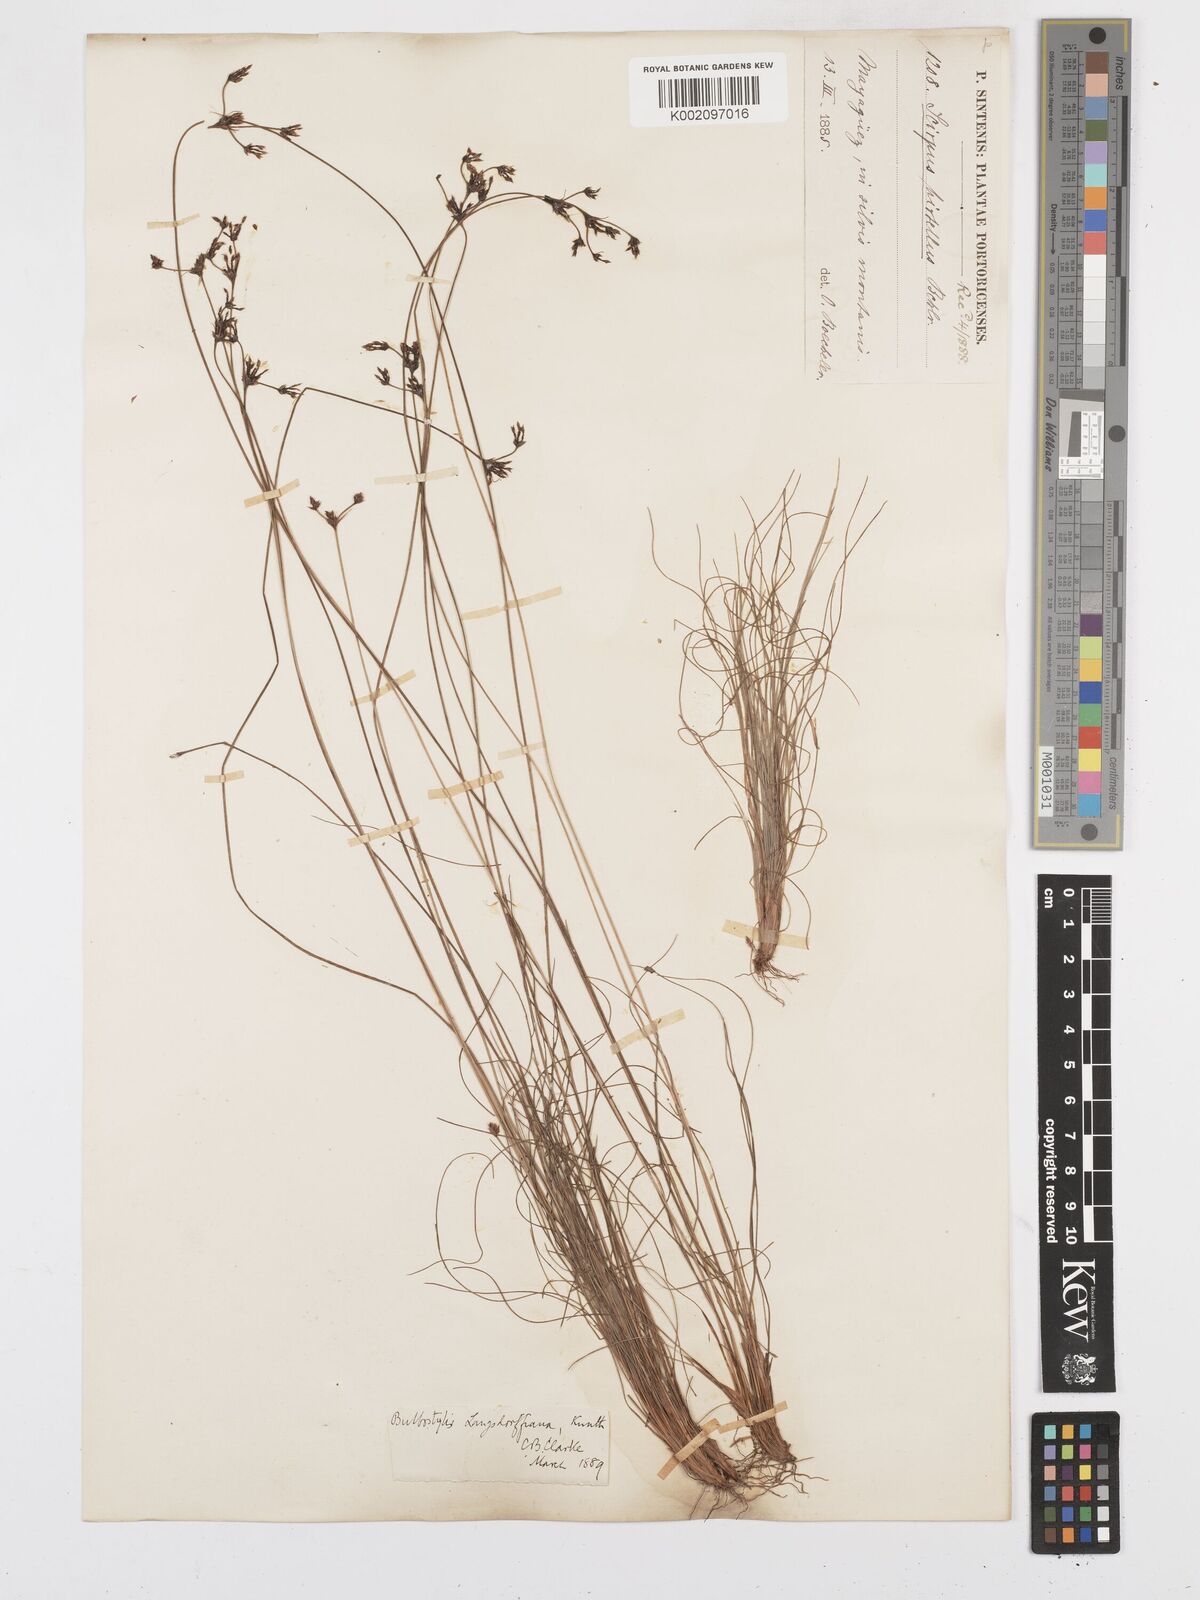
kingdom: Plantae
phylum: Tracheophyta
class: Liliopsida
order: Poales
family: Cyperaceae
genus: Bulbostylis
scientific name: Bulbostylis juncoides
